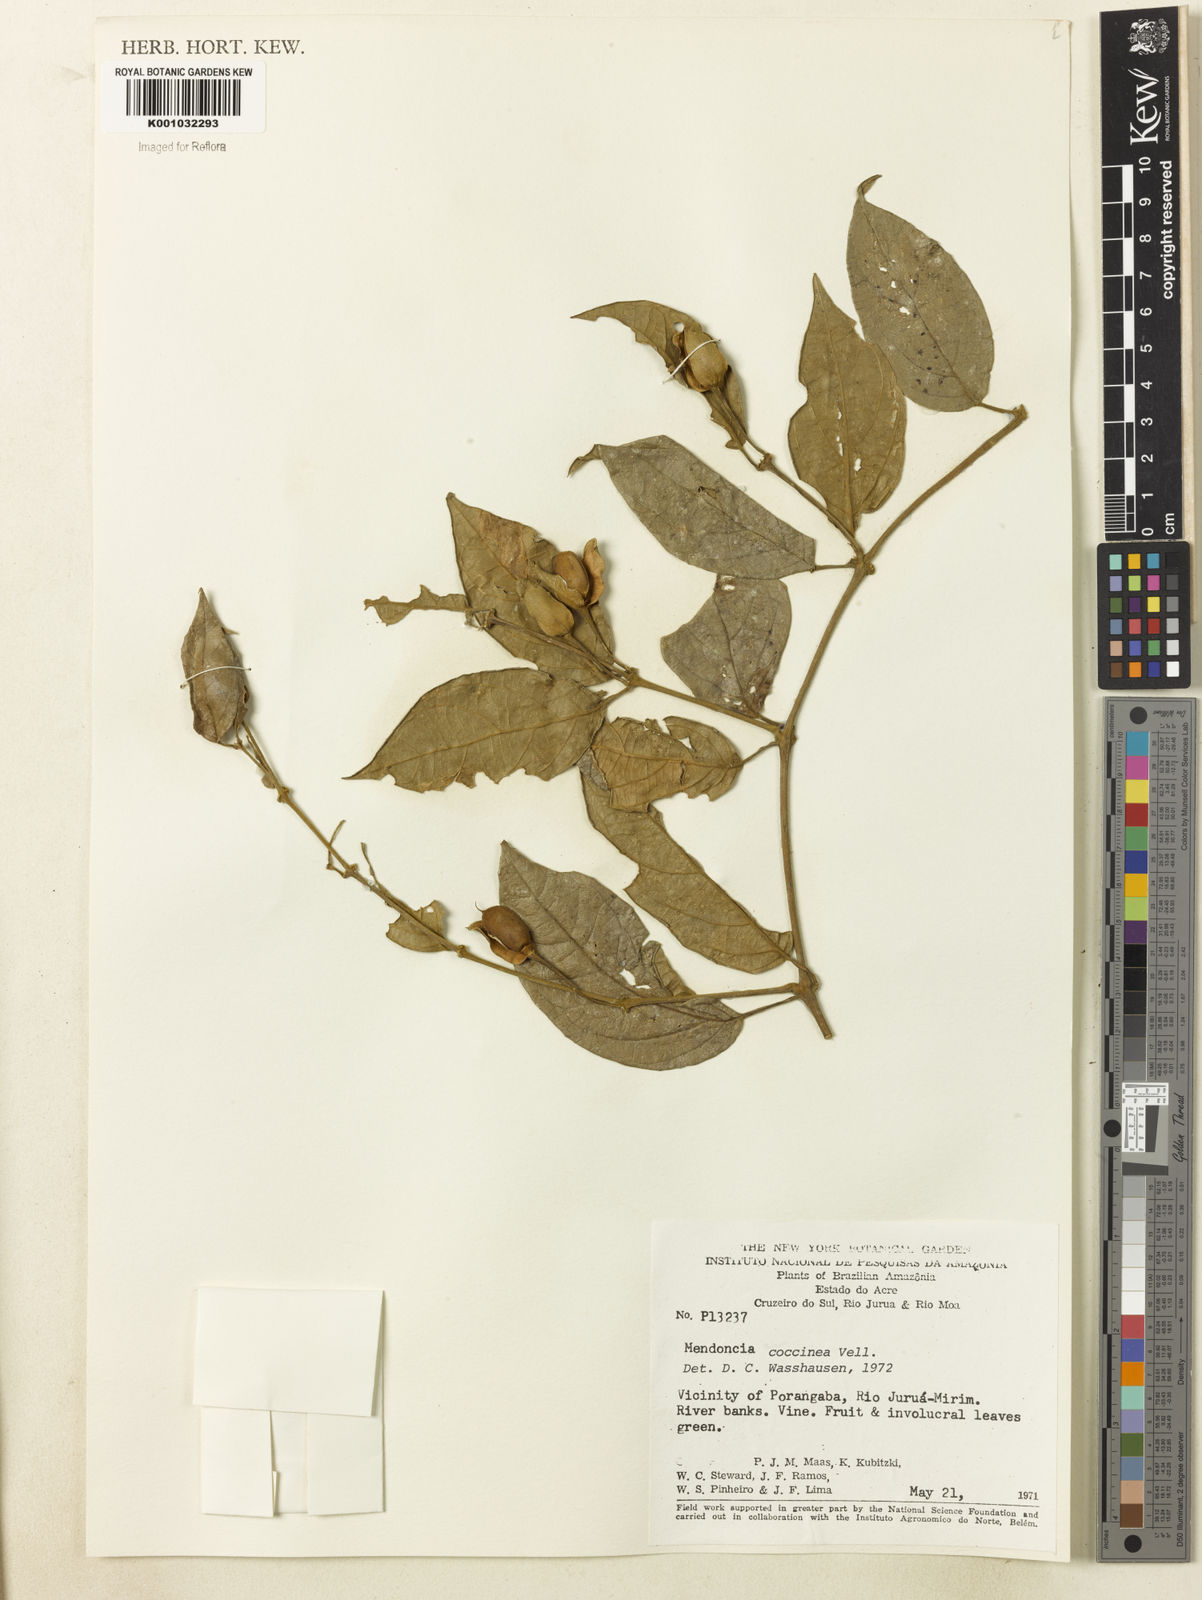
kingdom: Plantae
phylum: Tracheophyta
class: Magnoliopsida
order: Lamiales
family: Acanthaceae
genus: Mendoncia
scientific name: Mendoncia coccinea
